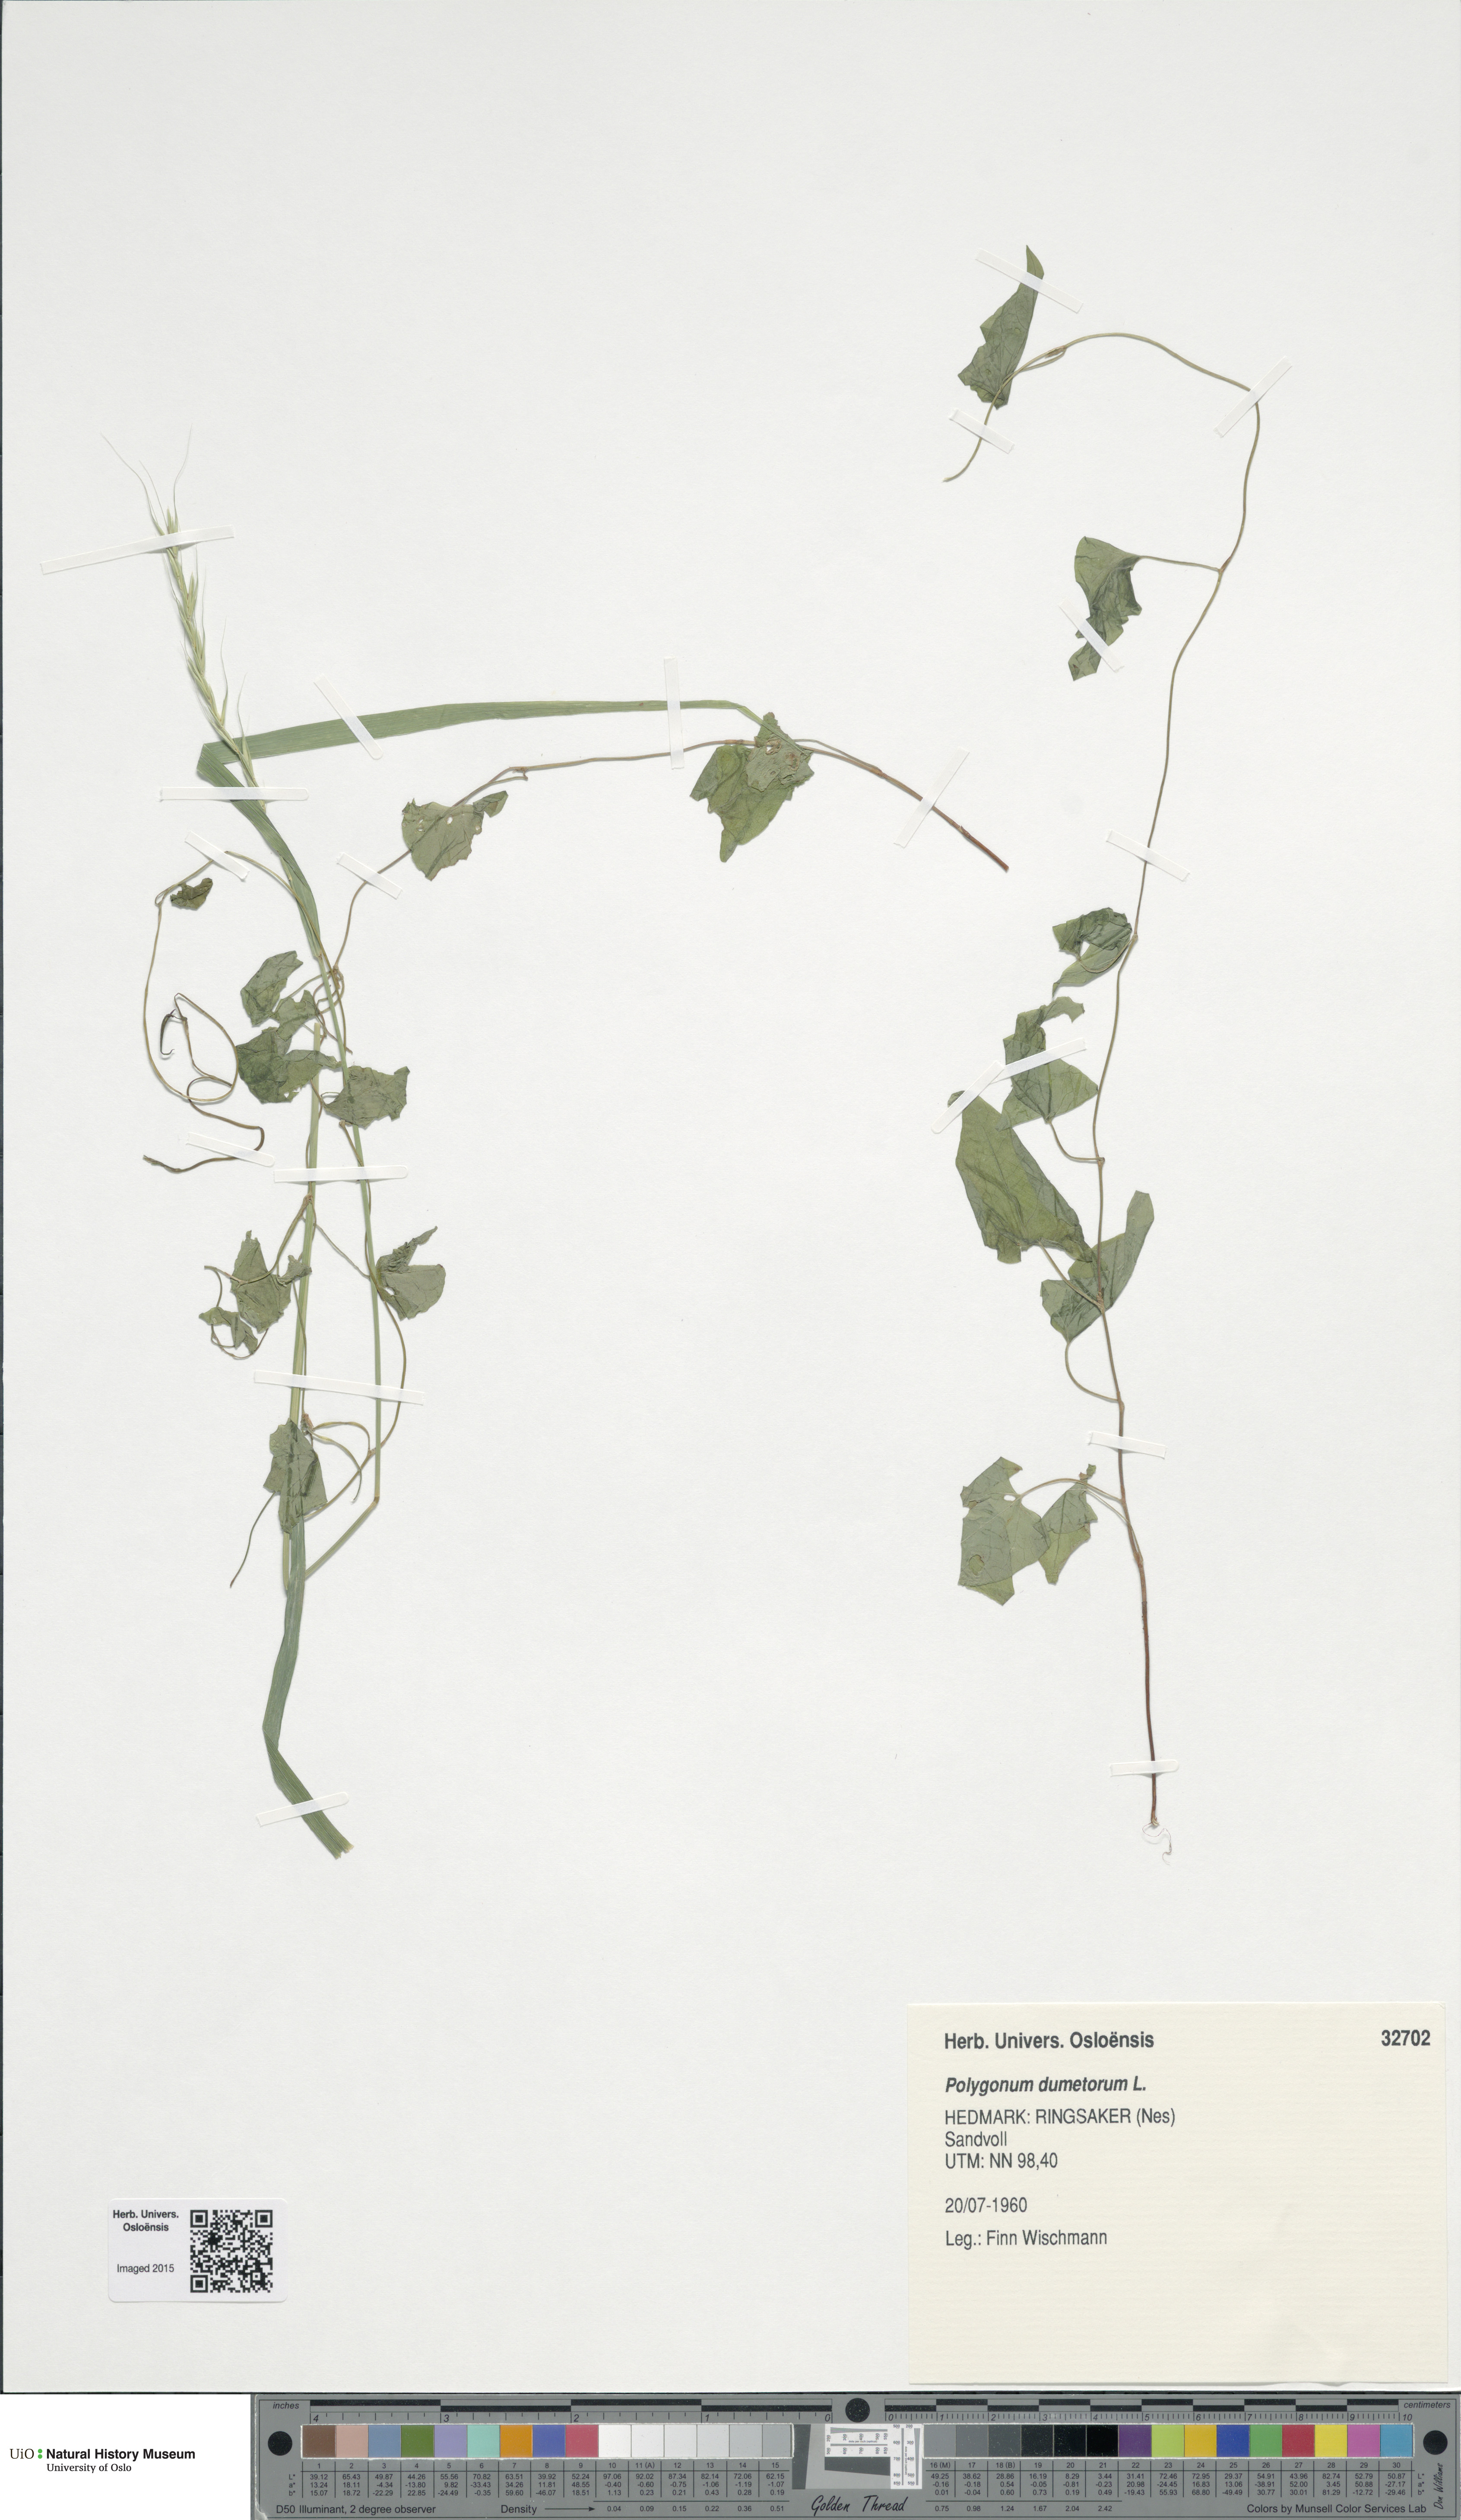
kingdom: Plantae
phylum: Tracheophyta
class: Magnoliopsida
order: Caryophyllales
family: Polygonaceae
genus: Fallopia
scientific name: Fallopia dumetorum
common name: Copse-bindweed
